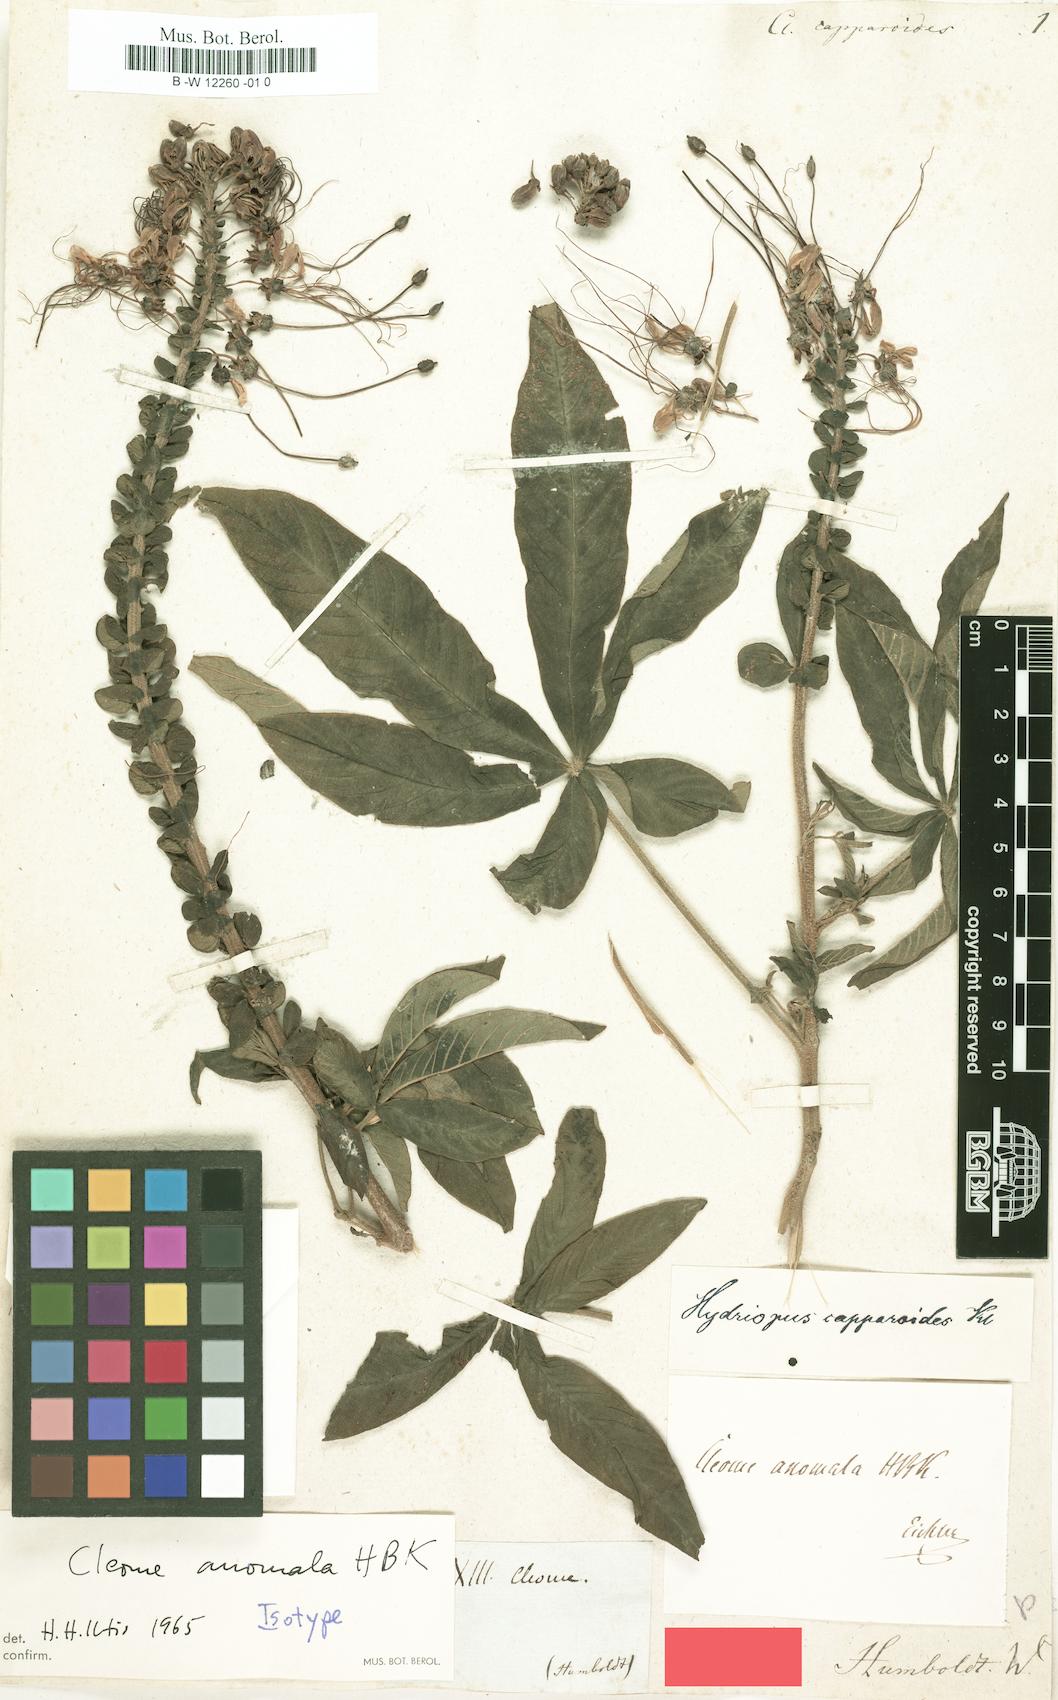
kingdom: Plantae
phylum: Tracheophyta
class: Magnoliopsida
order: Brassicales
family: Cleomaceae
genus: Andinocleome
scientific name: Andinocleome anomala
